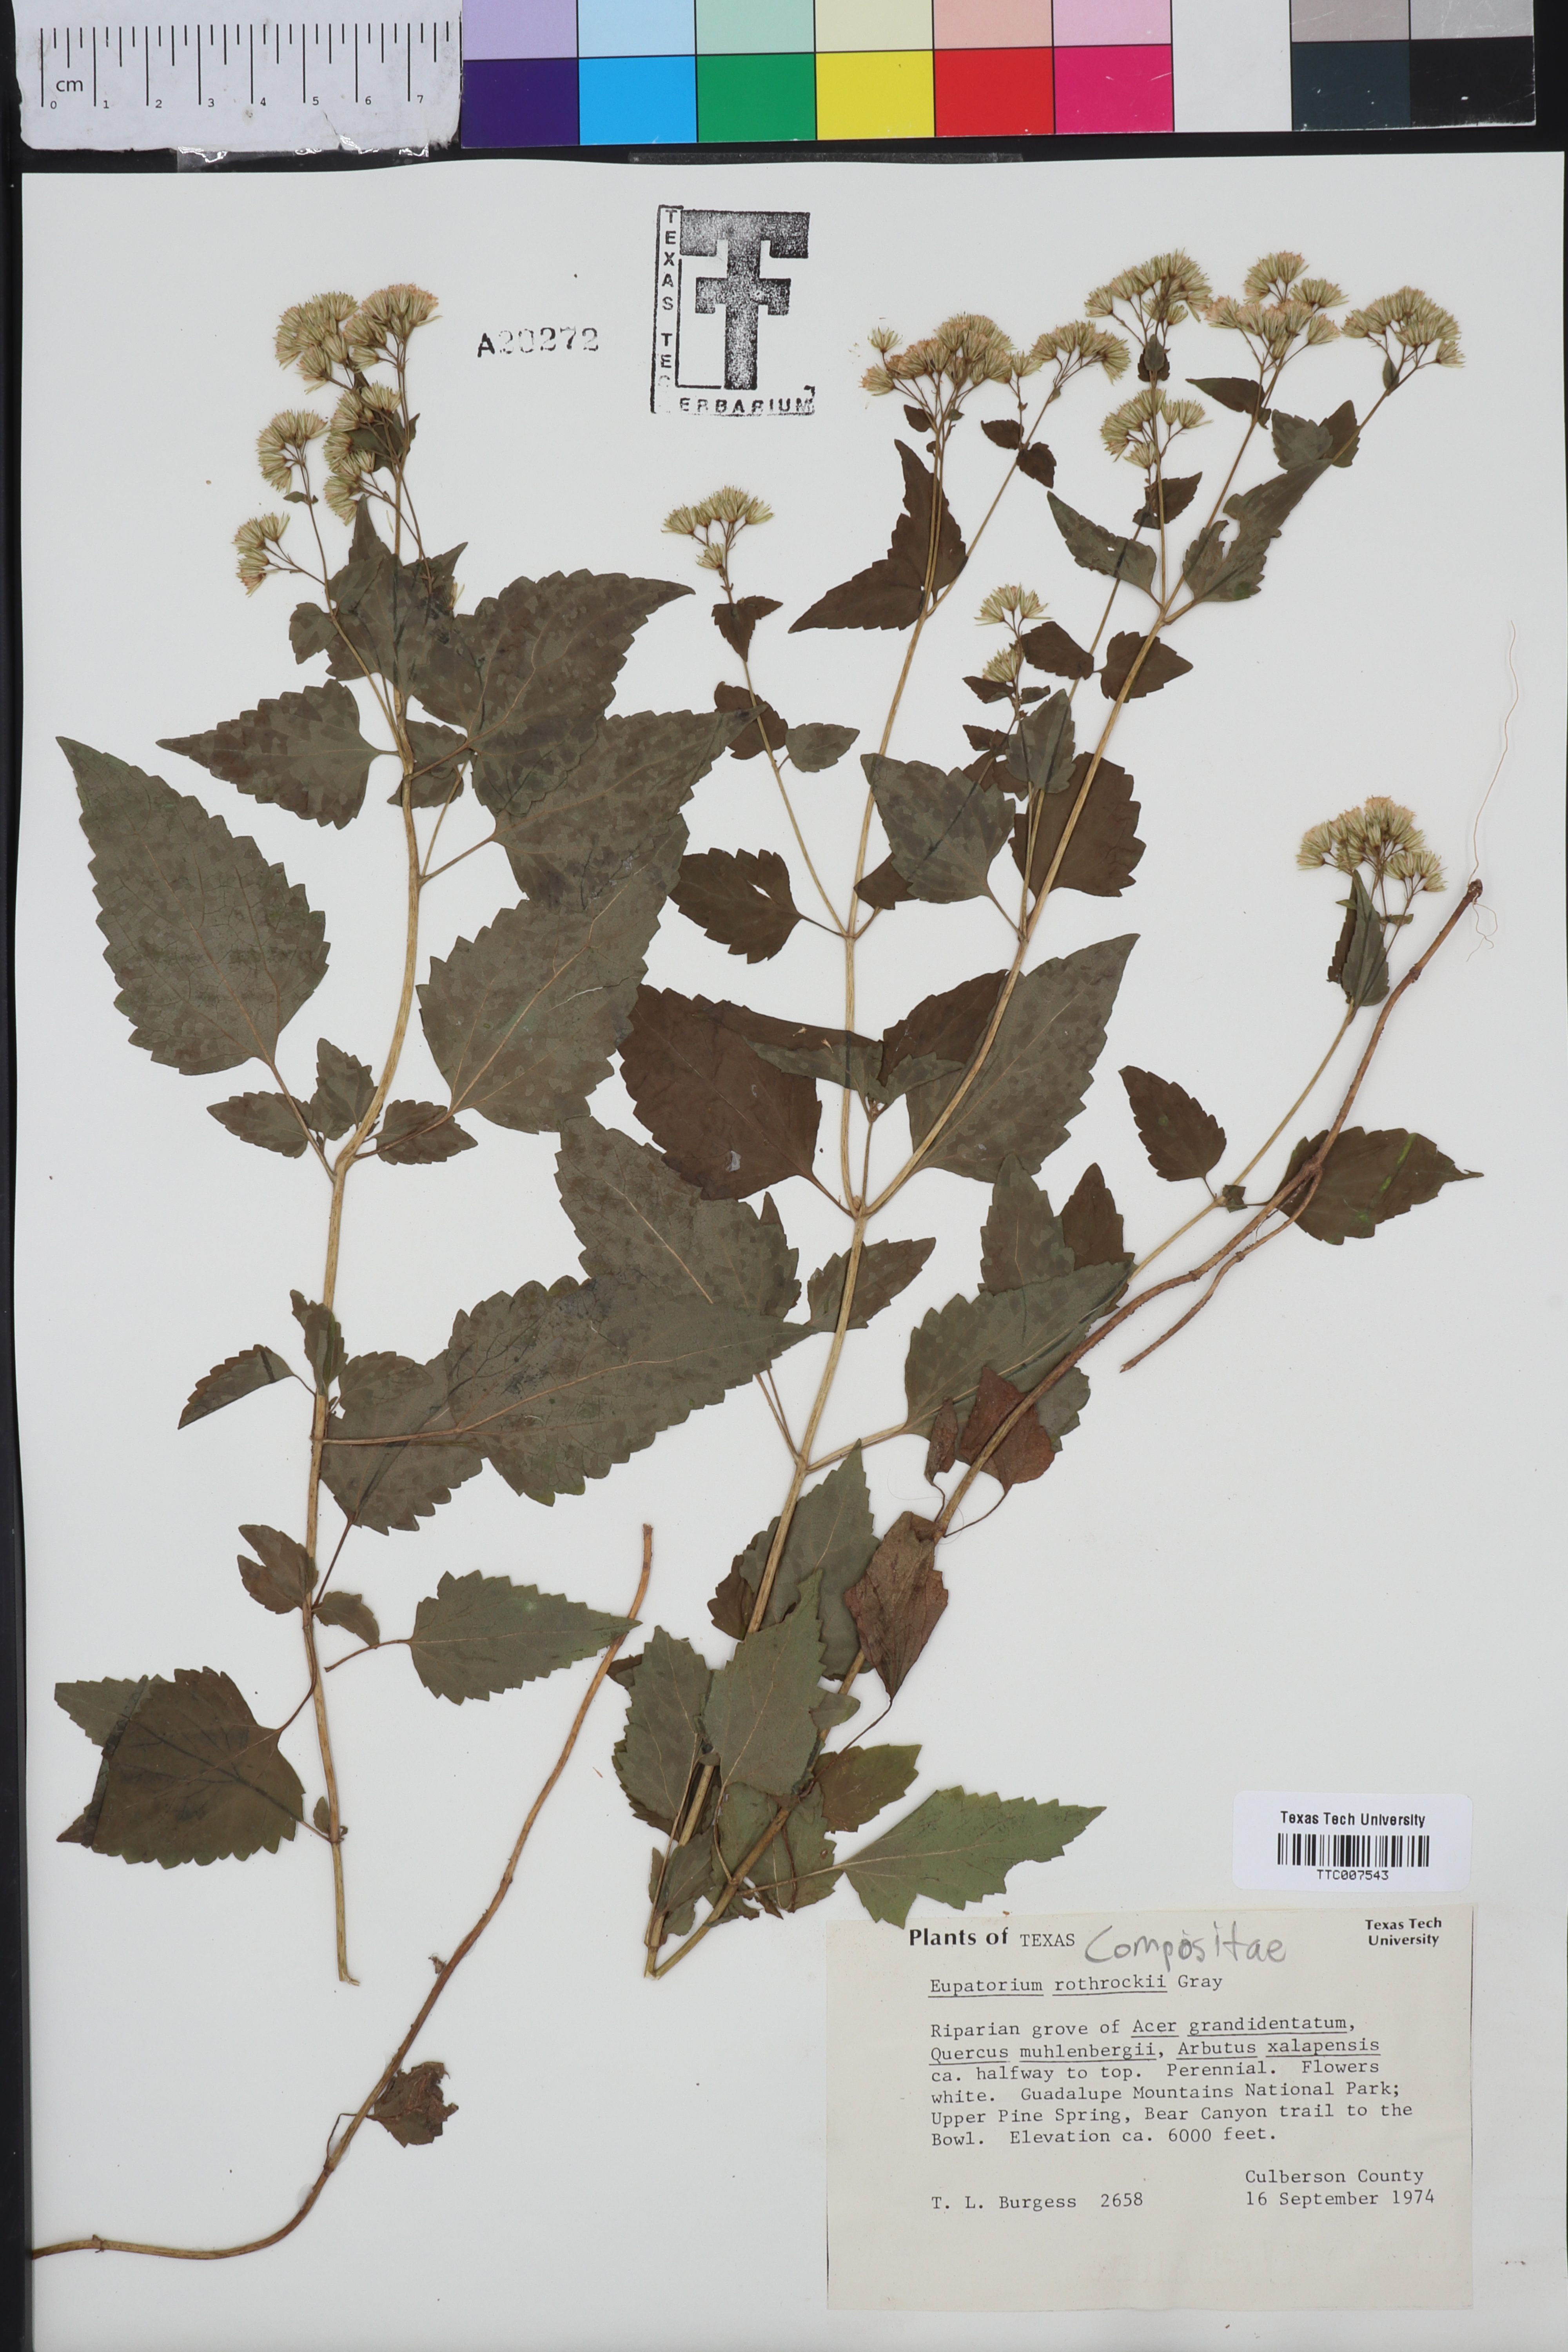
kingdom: Plantae
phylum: Tracheophyta
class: Magnoliopsida
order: Asterales
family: Asteraceae
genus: Ageratina
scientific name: Ageratina rothrockii
